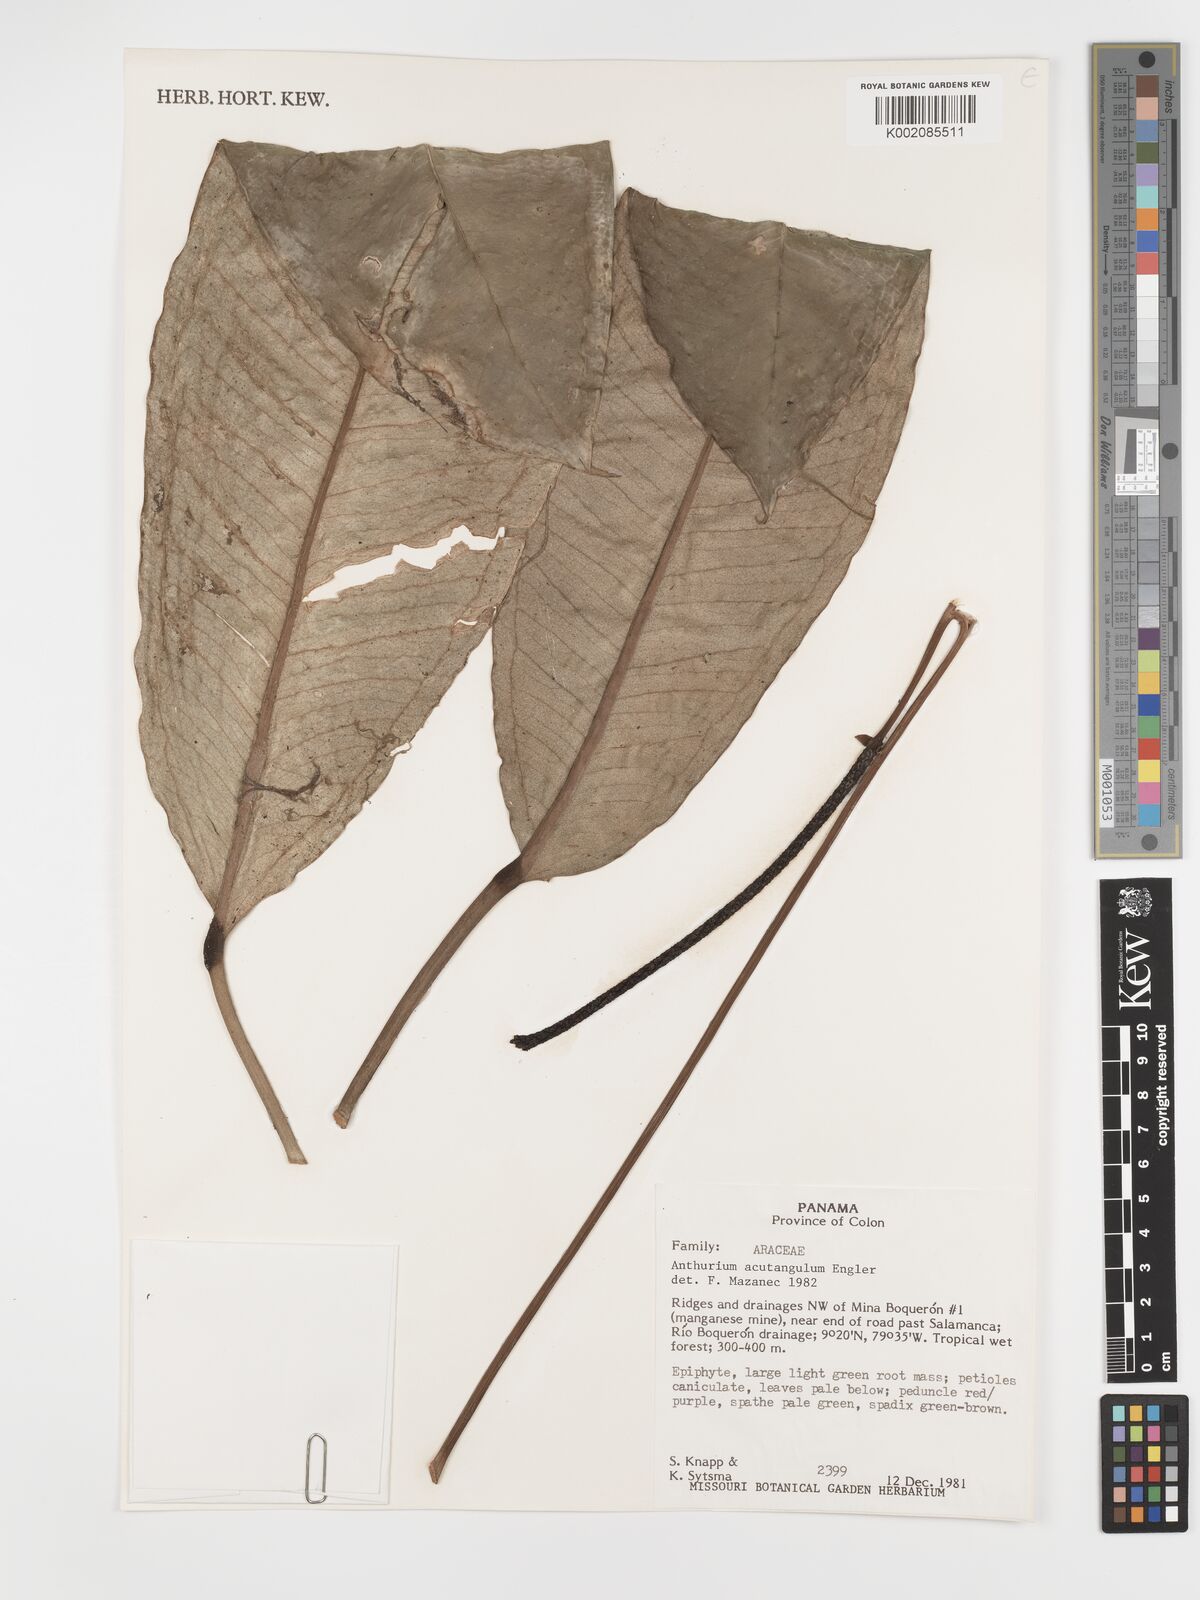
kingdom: Plantae
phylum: Tracheophyta
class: Liliopsida
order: Alismatales
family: Araceae
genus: Anthurium
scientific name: Anthurium acutangulum
